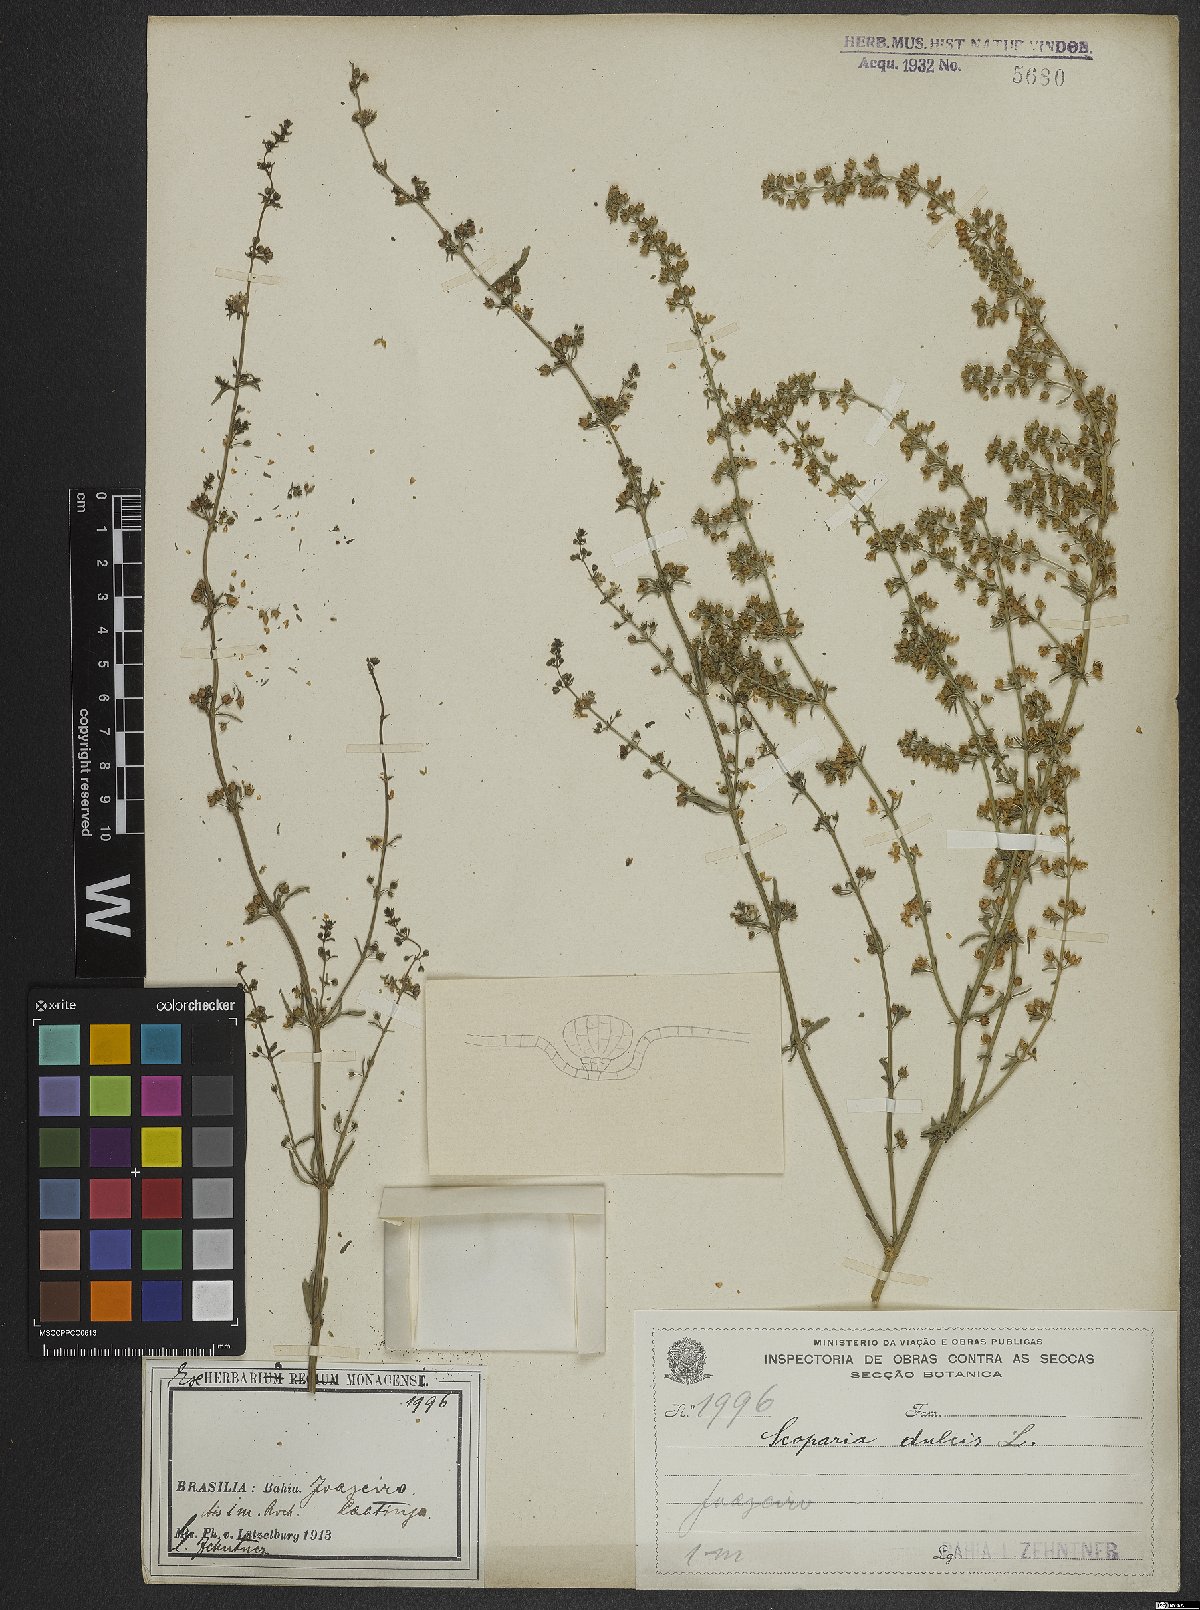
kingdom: Plantae
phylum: Tracheophyta
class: Magnoliopsida
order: Lamiales
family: Plantaginaceae
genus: Scoparia
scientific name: Scoparia dulcis
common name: Scoparia-weed
